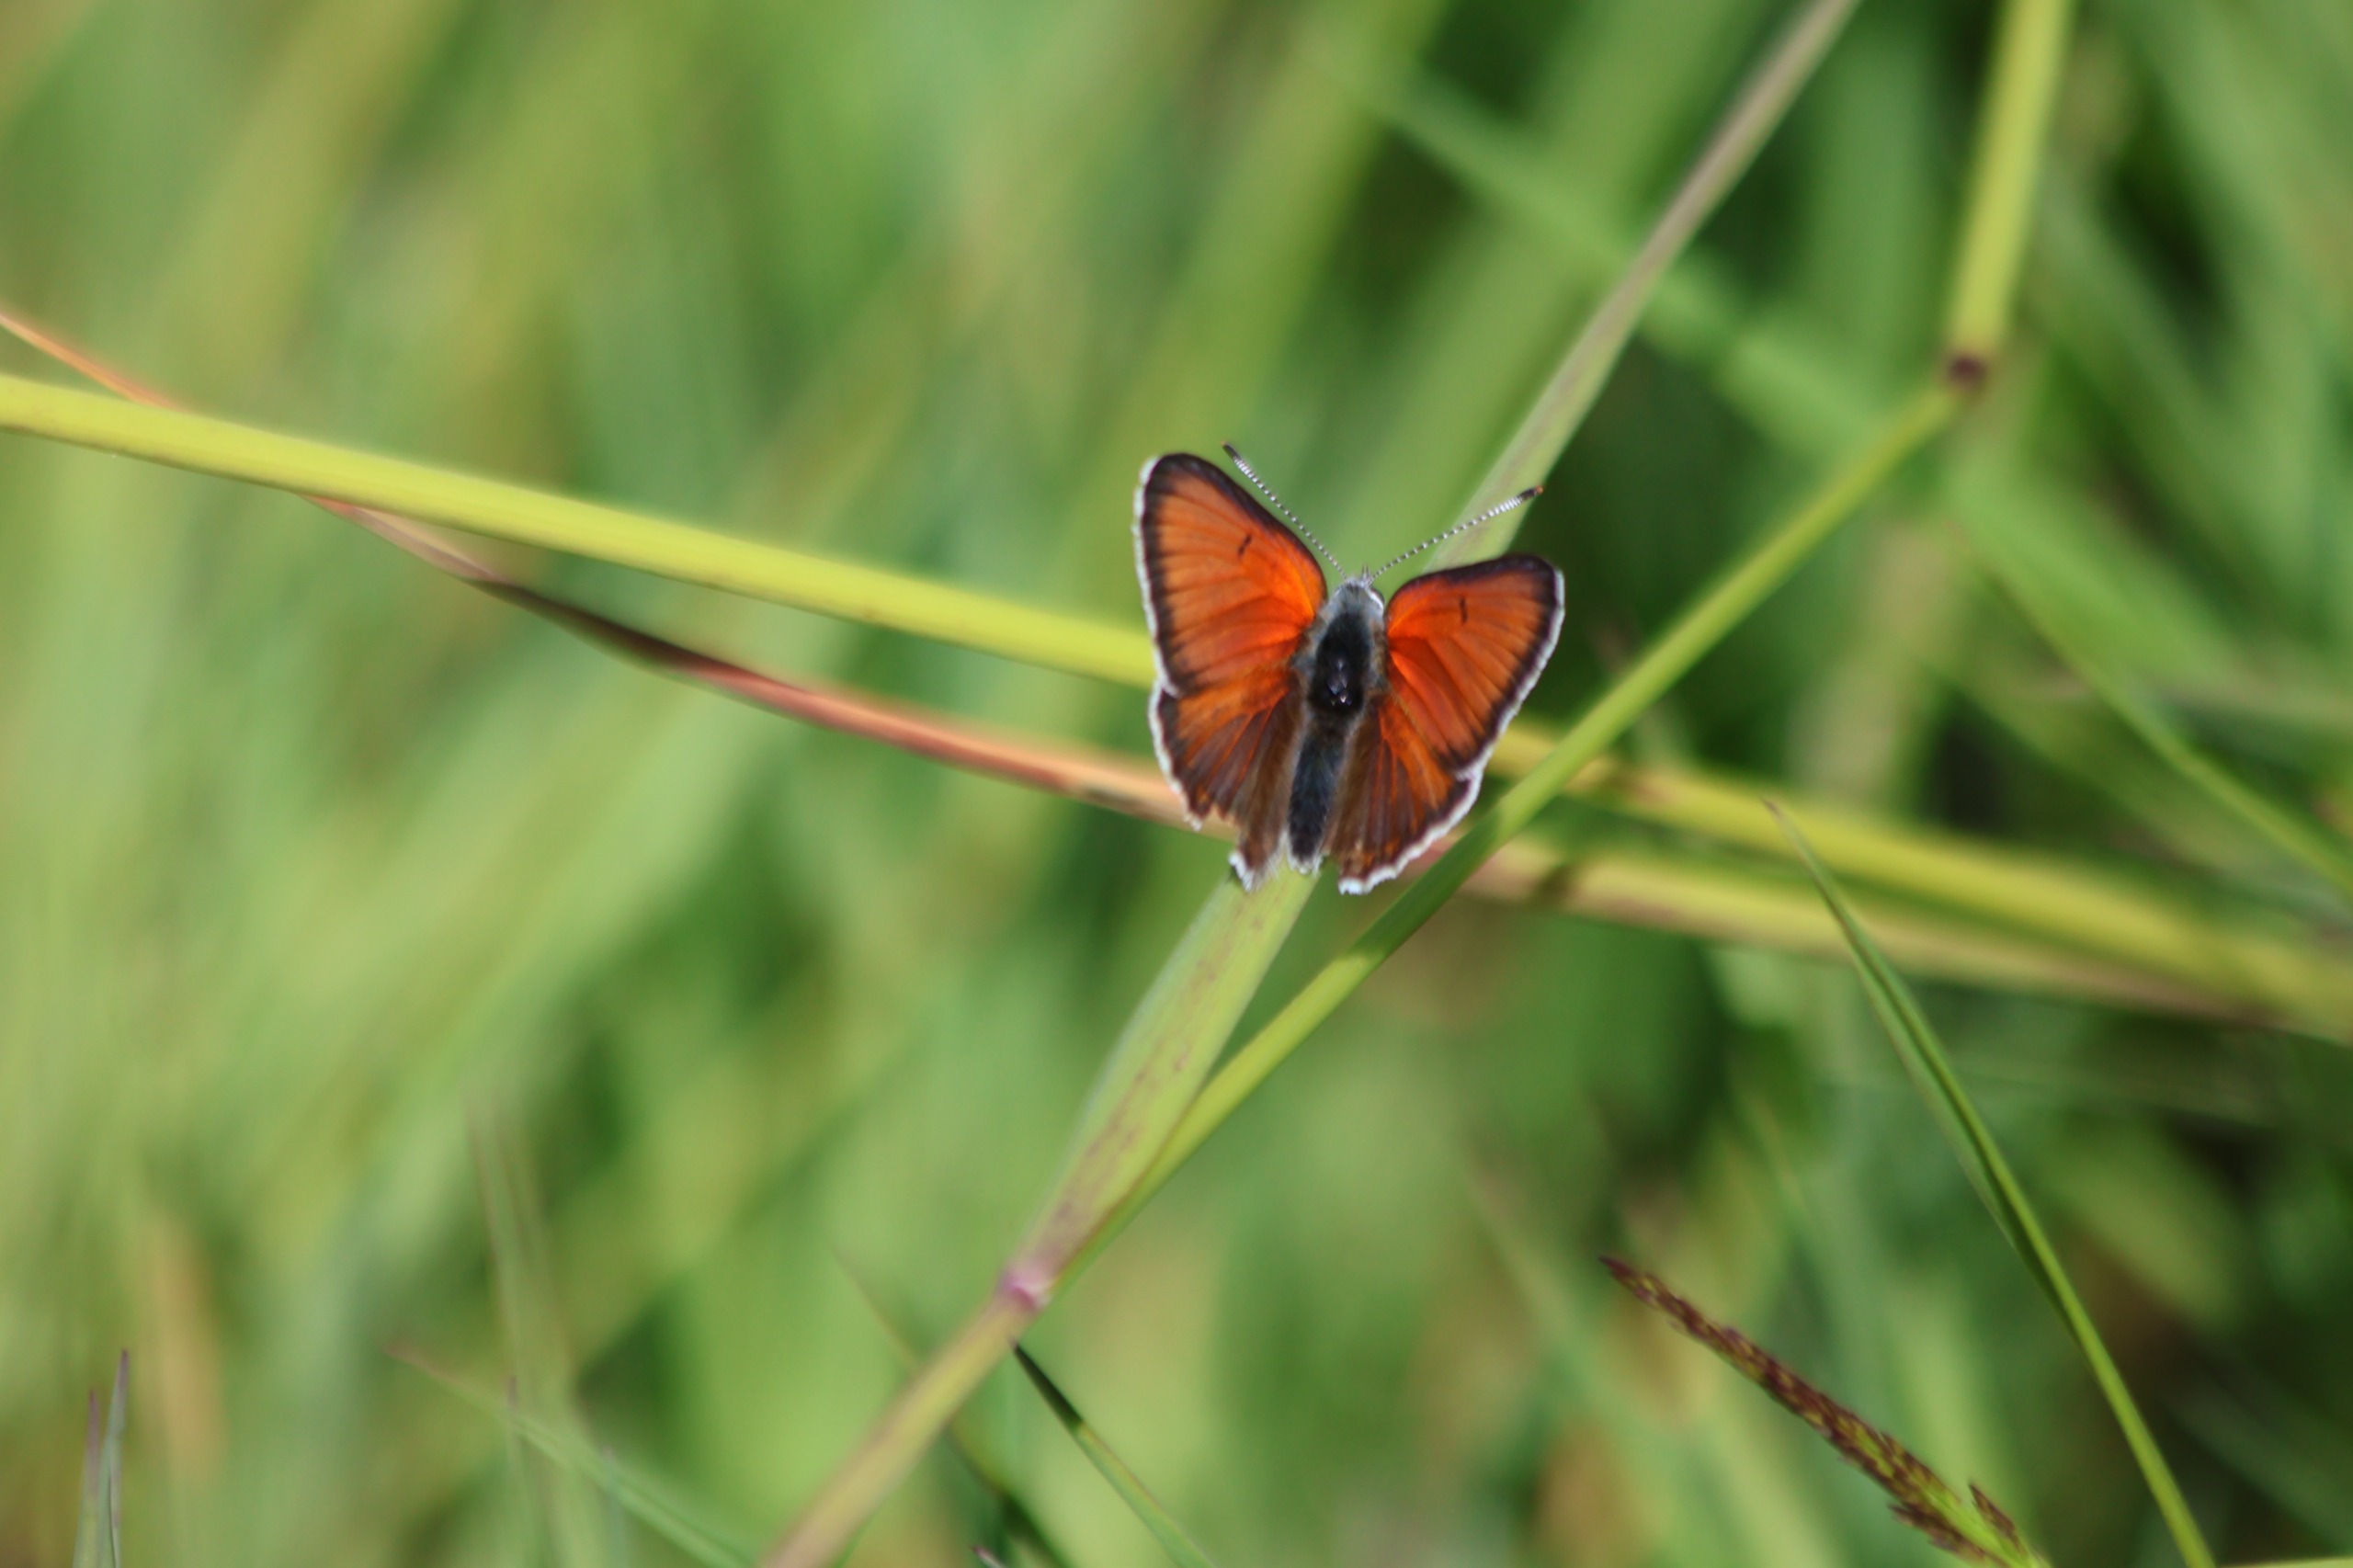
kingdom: Animalia
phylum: Arthropoda
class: Insecta
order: Lepidoptera
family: Lycaenidae
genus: Palaeochrysophanus
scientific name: Palaeochrysophanus hippothoe
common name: Violetrandet ildfugl
